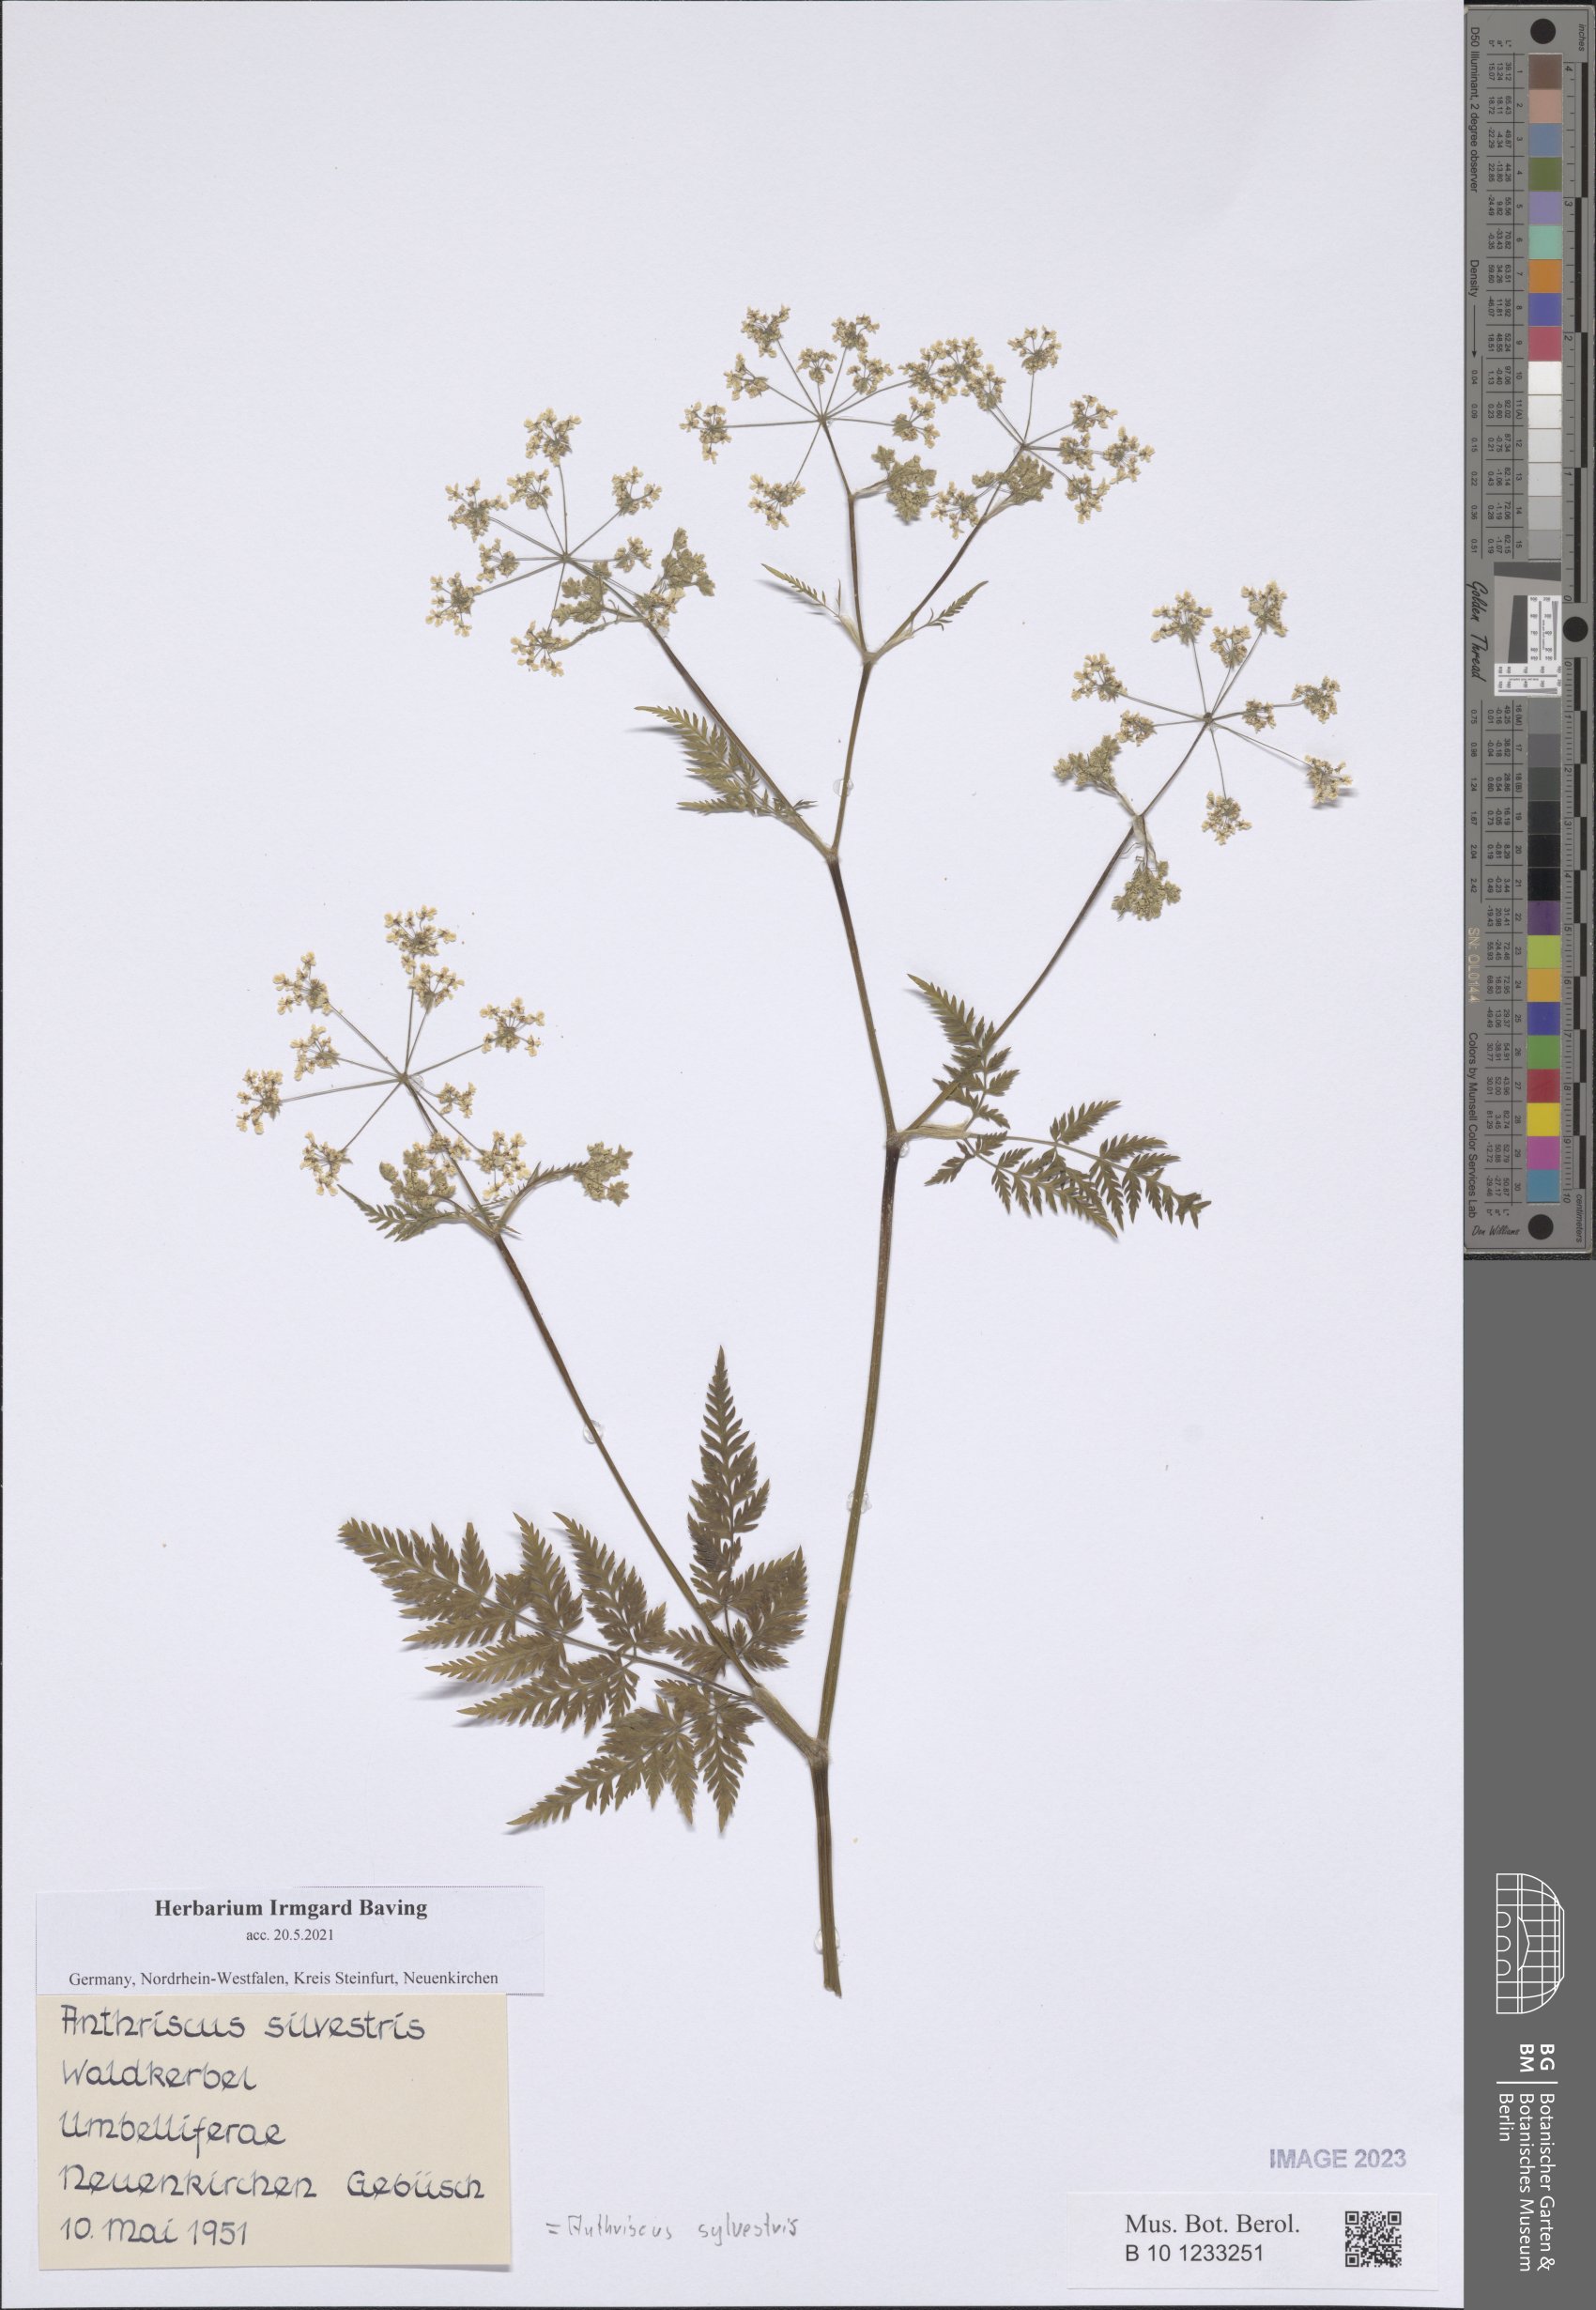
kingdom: Plantae
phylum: Tracheophyta
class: Magnoliopsida
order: Apiales
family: Apiaceae
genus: Anthriscus
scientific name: Anthriscus sylvestris
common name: Cow parsley
